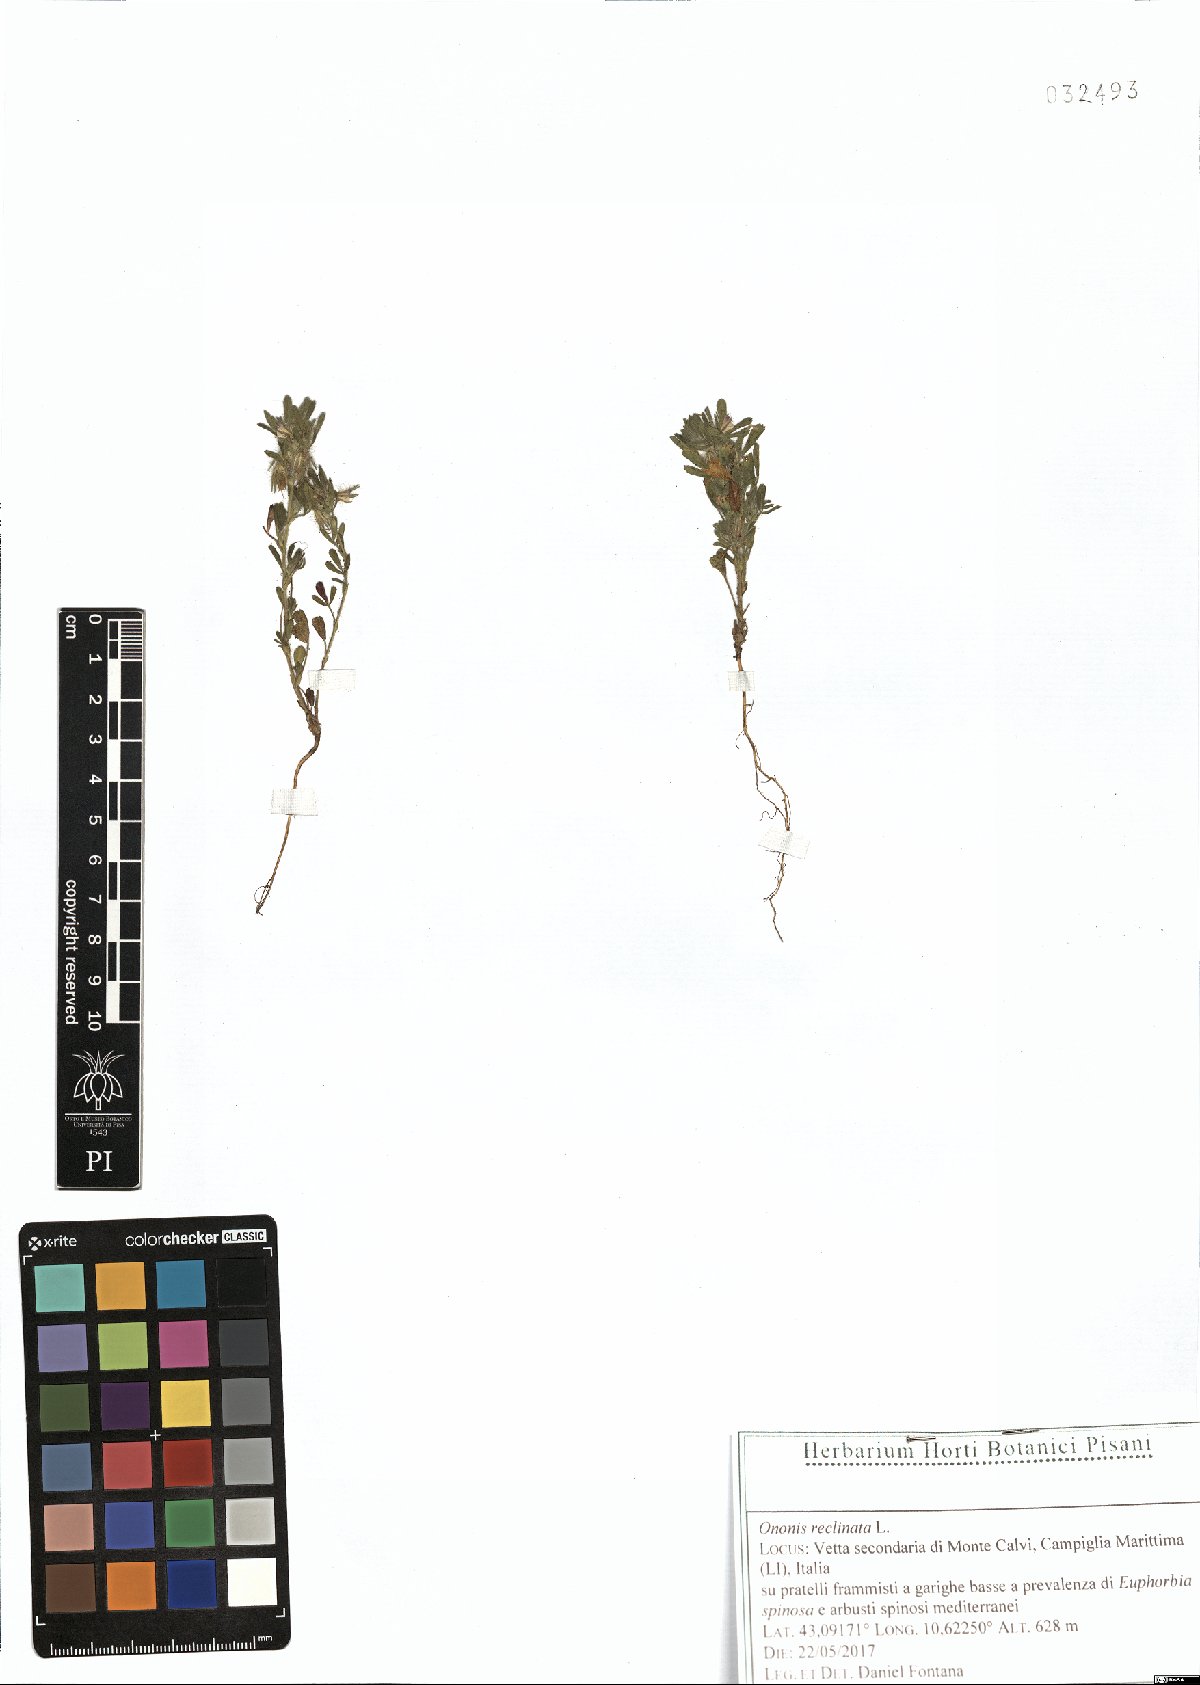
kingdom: Plantae
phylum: Tracheophyta
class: Magnoliopsida
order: Fabales
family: Fabaceae
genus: Ononis
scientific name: Ononis reclinata
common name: Small restharrow
